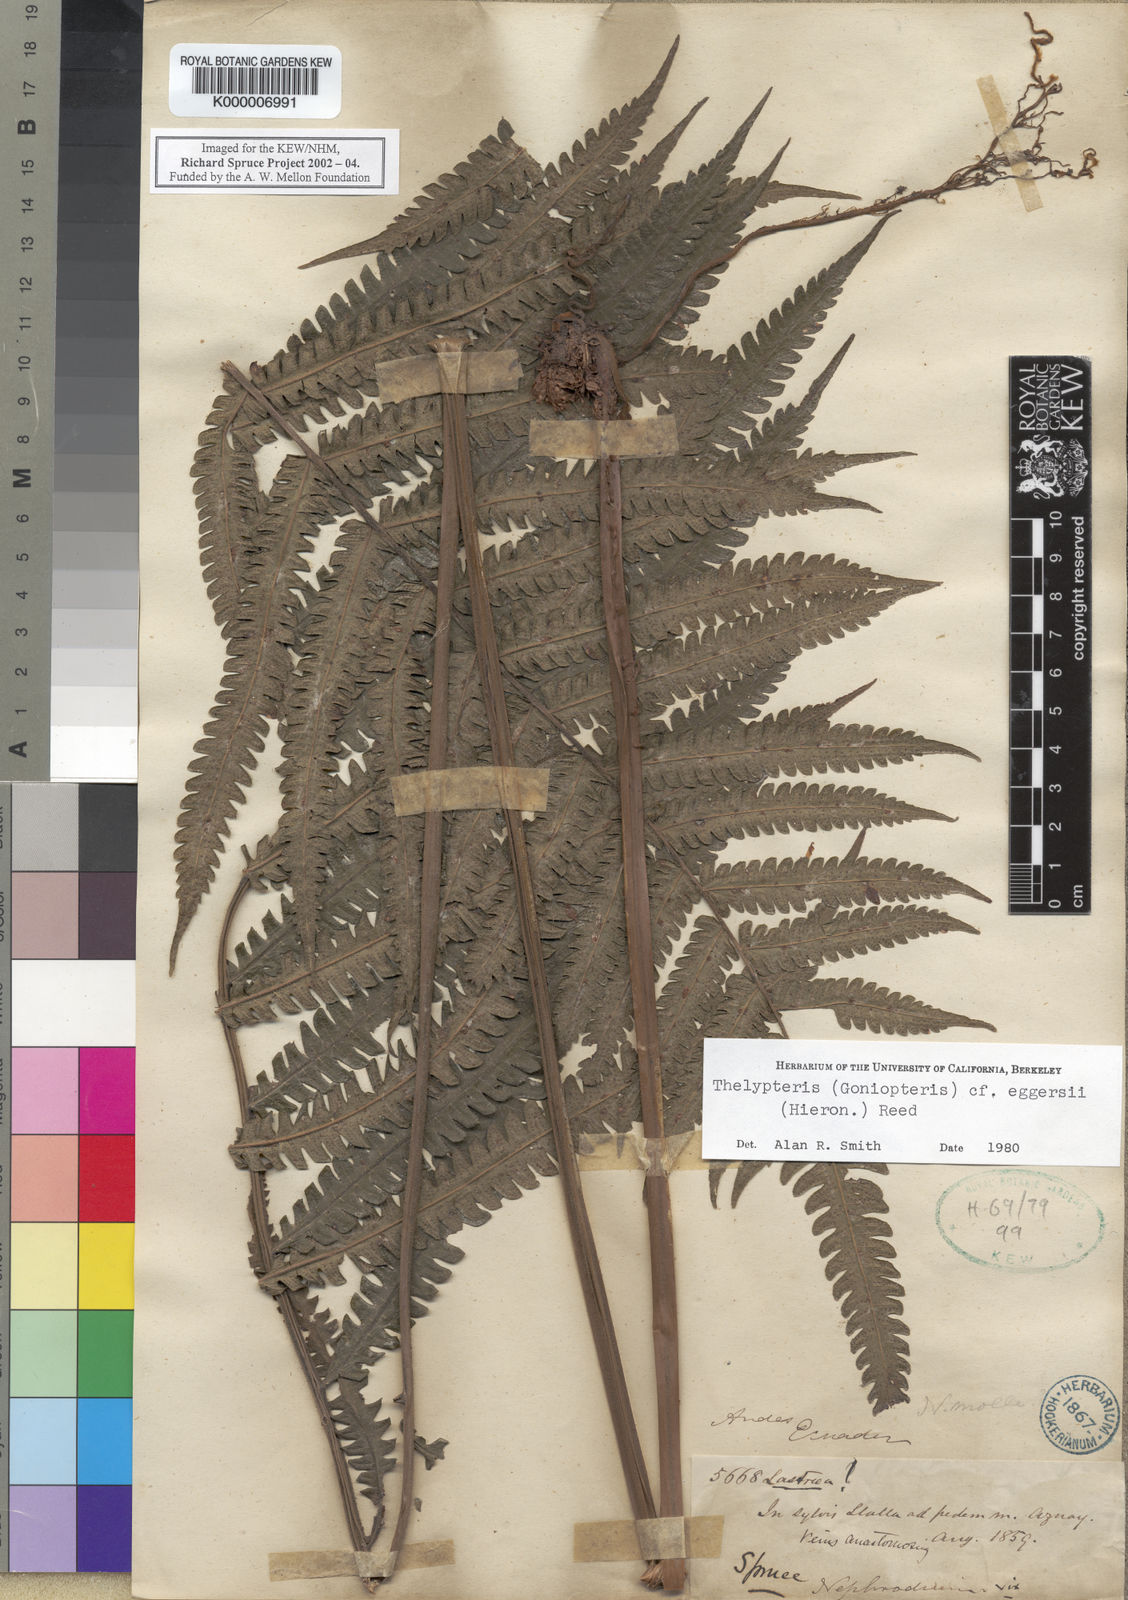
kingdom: Plantae
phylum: Tracheophyta
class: Polypodiopsida
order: Polypodiales
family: Thelypteridaceae
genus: Goniopteris
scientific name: Goniopteris eggersii
